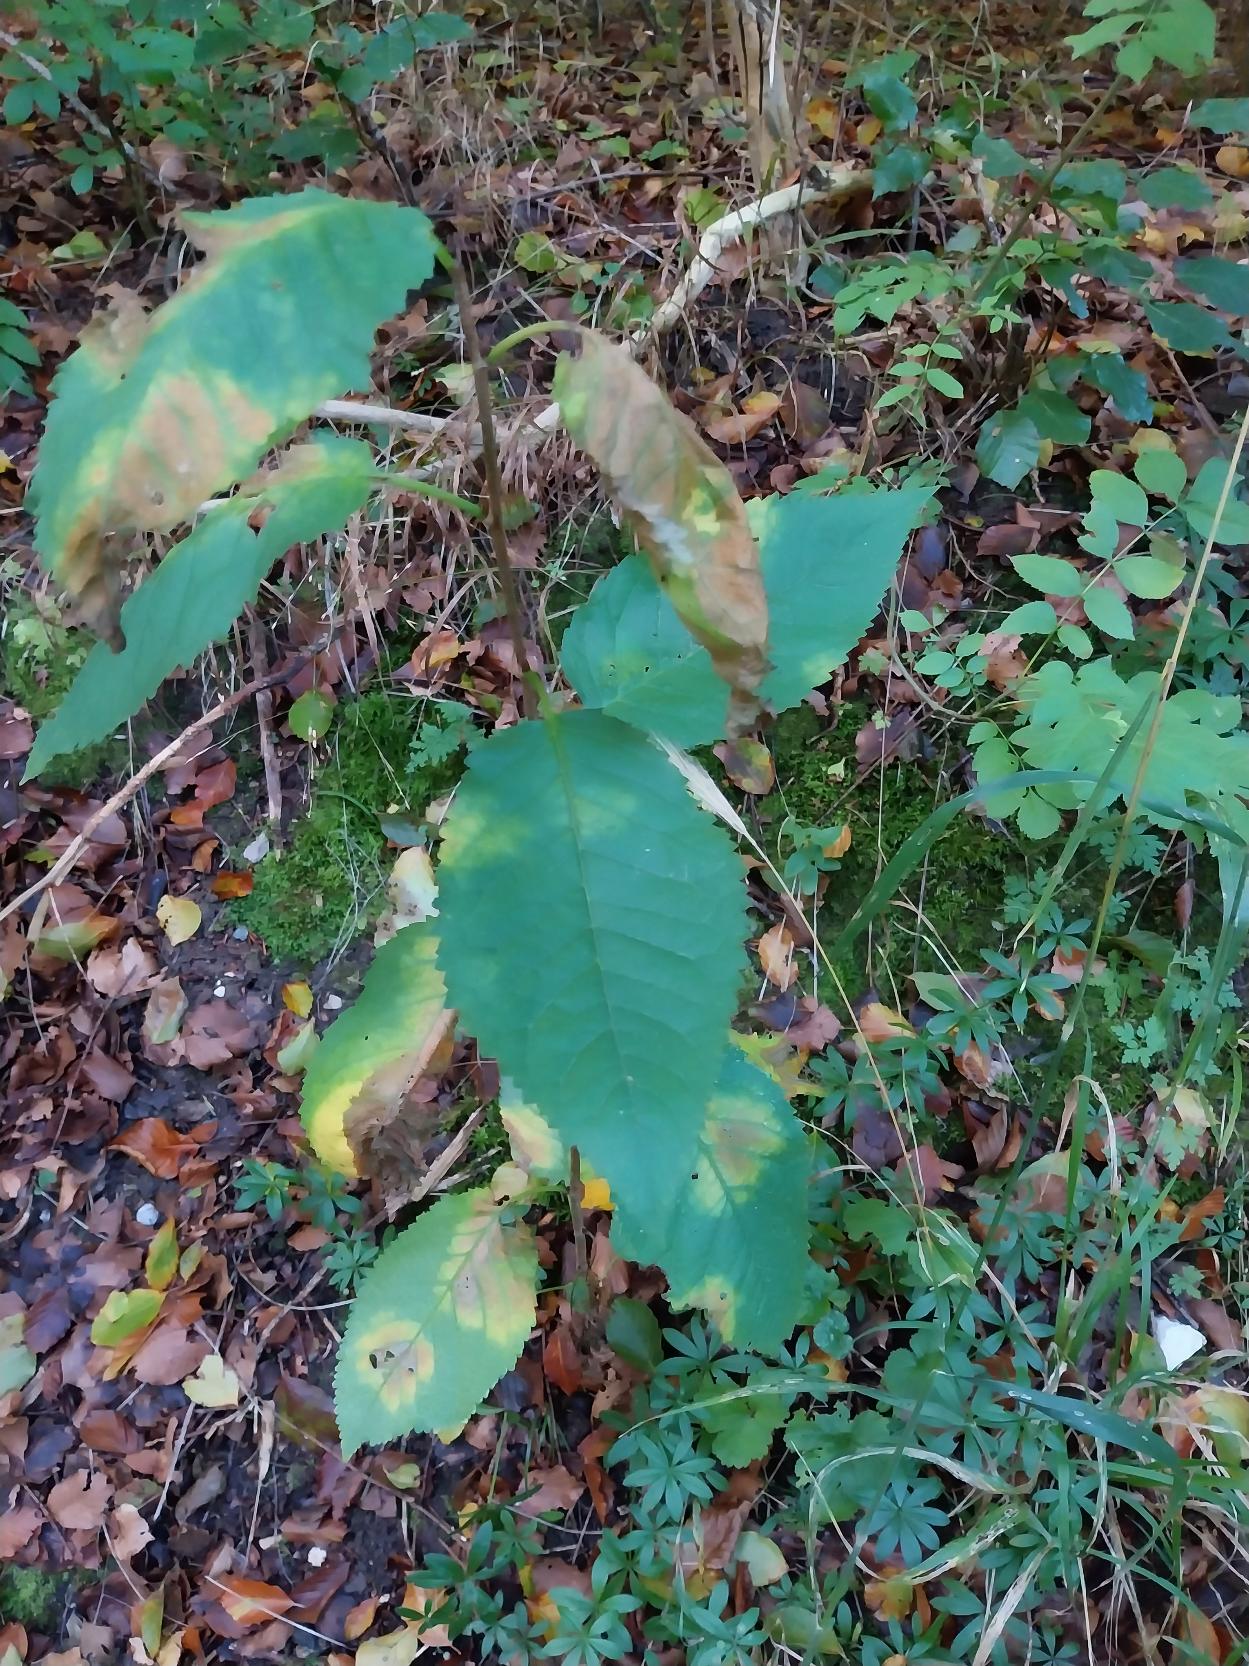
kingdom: Plantae
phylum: Tracheophyta
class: Magnoliopsida
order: Rosales
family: Rosaceae
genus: Prunus
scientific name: Prunus avium
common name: Fugle-kirsebær
